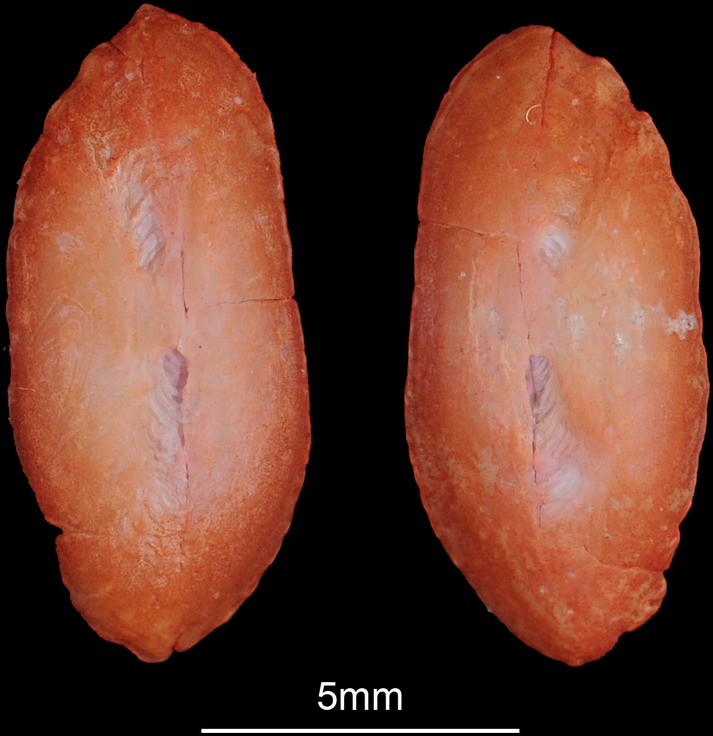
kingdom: Animalia
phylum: Chordata
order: Gadiformes
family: Lotidae
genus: Brosme
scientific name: Brosme brosme
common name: Cusk
